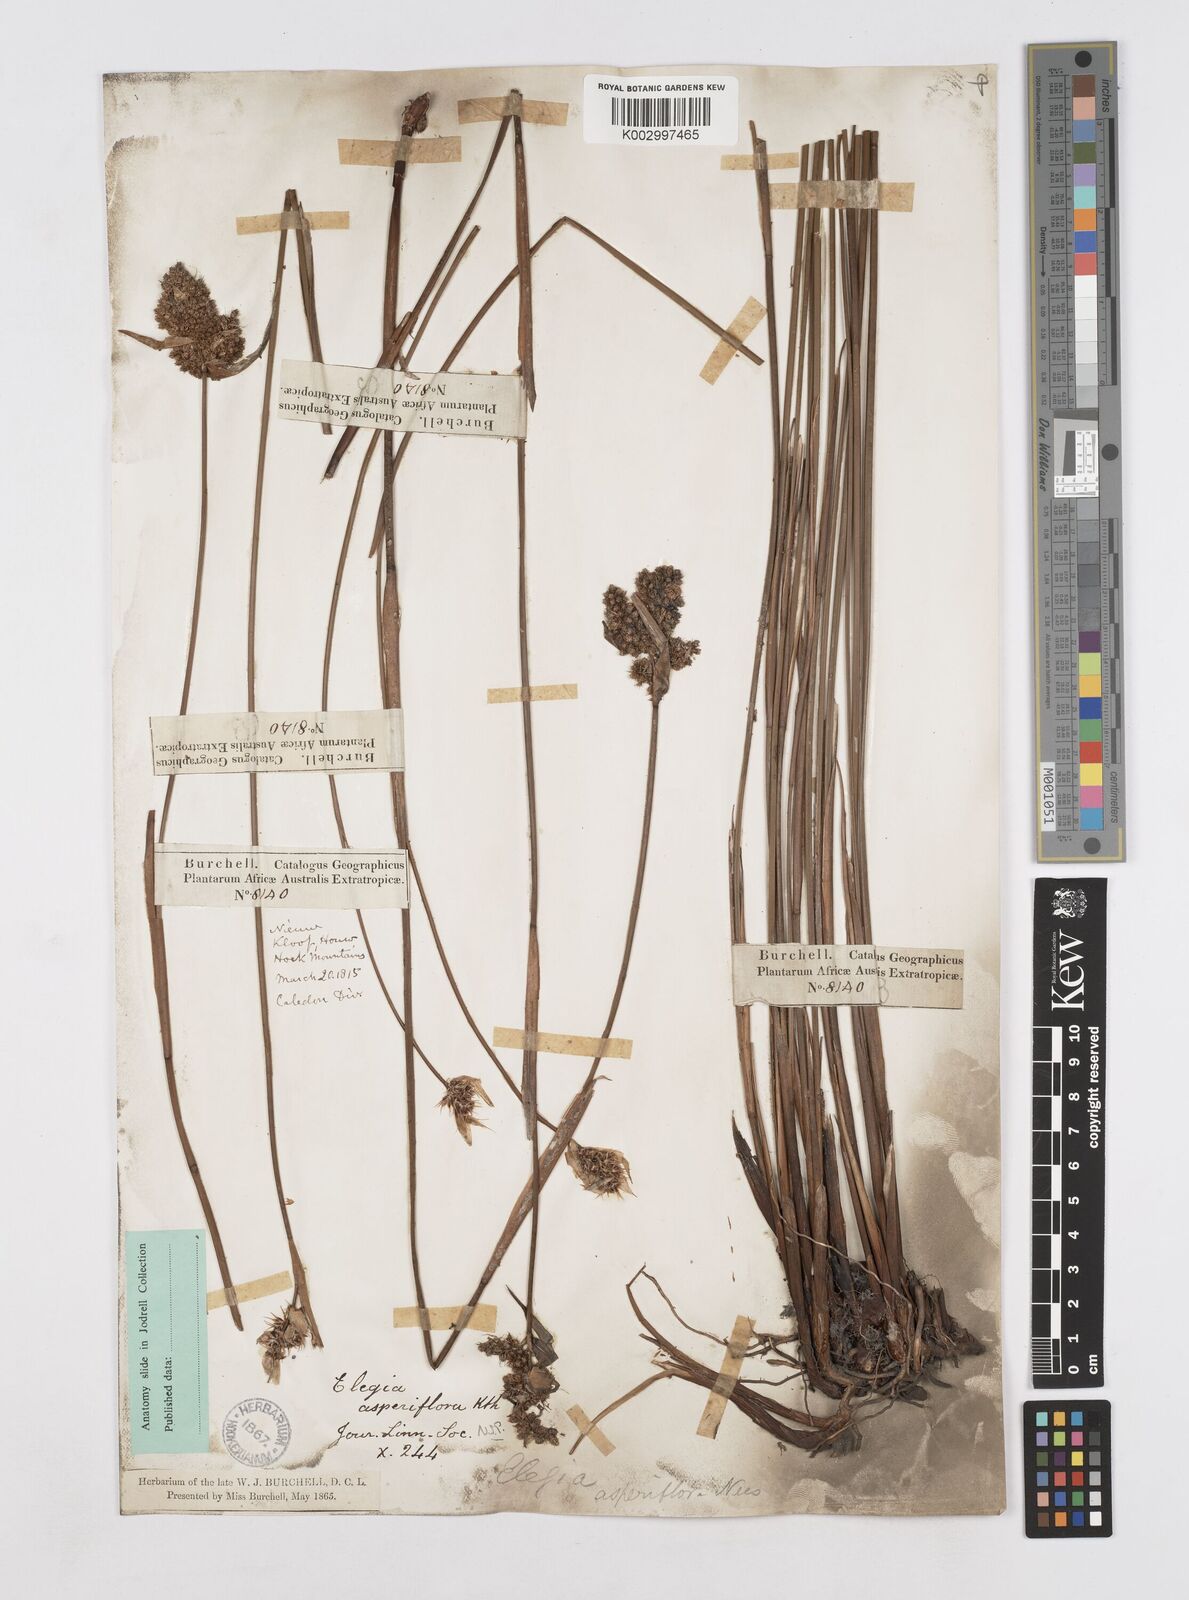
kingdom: Plantae
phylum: Tracheophyta
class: Liliopsida
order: Poales
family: Restionaceae
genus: Elegia
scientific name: Elegia asperiflora
